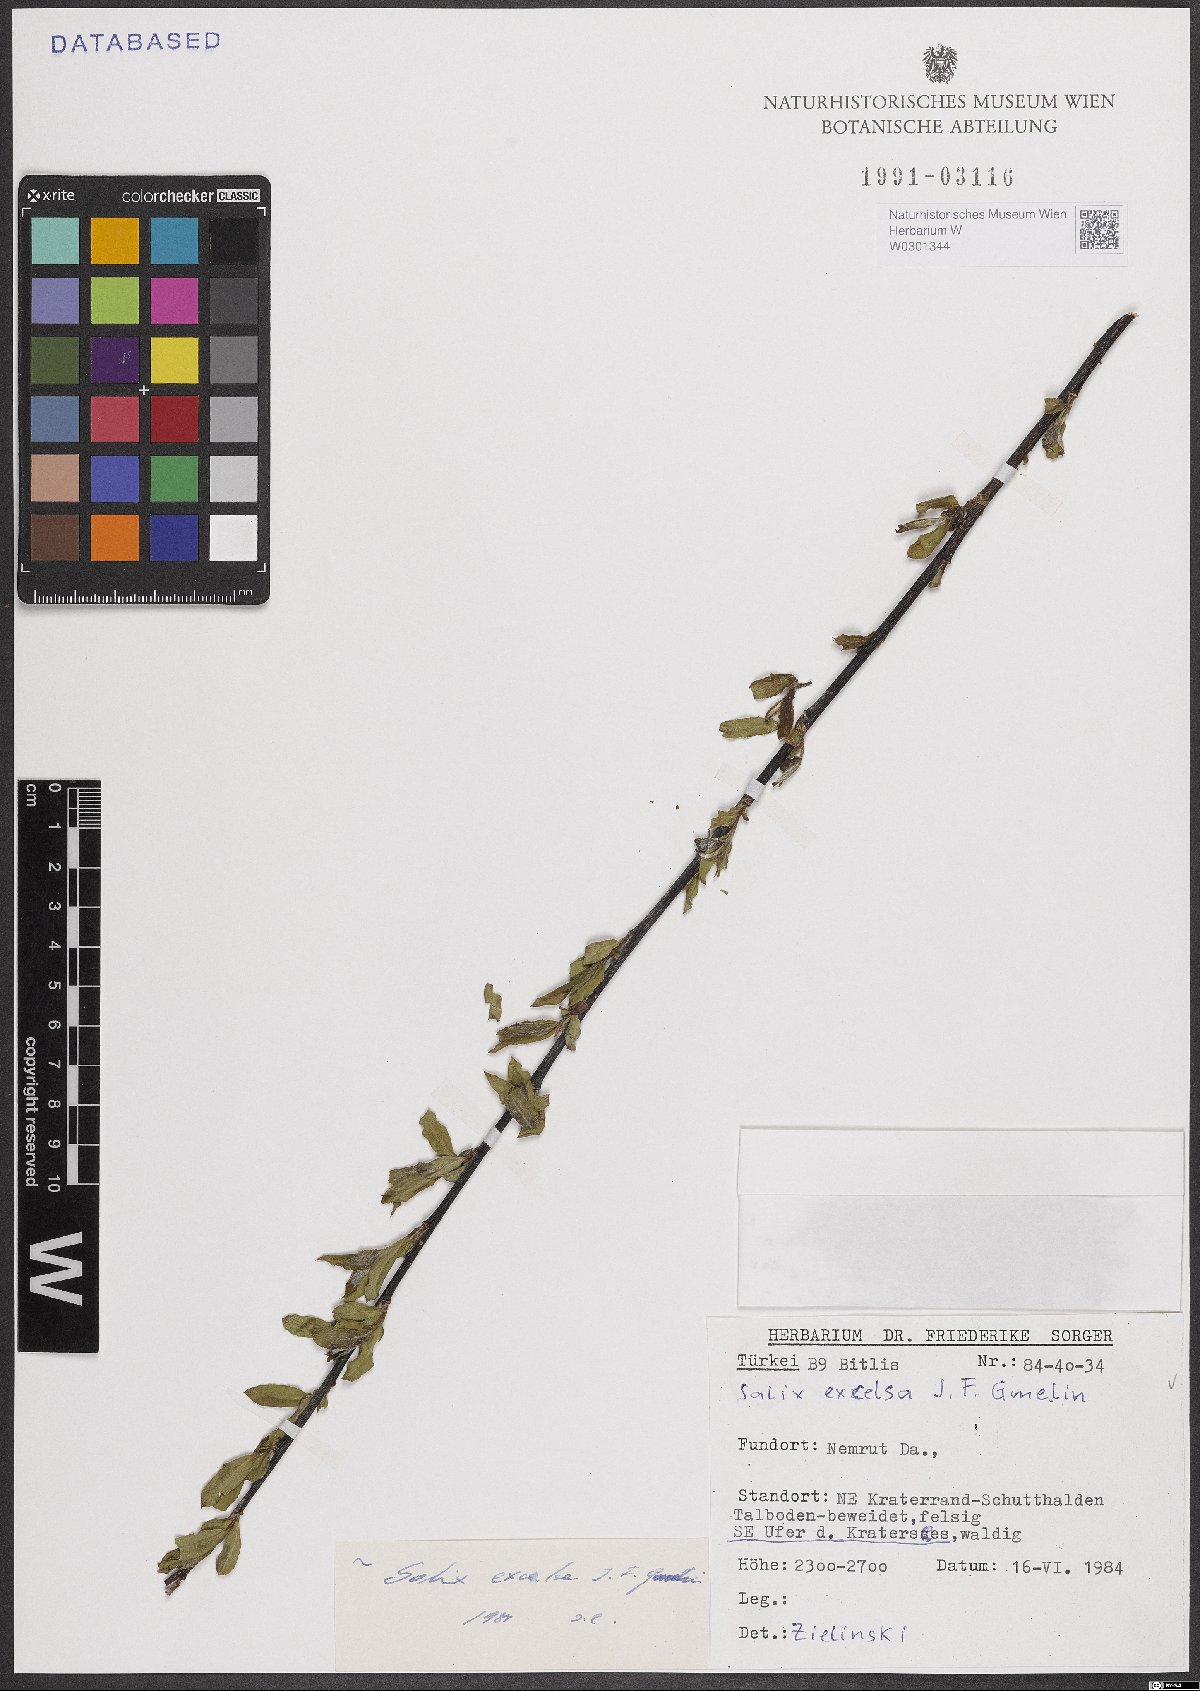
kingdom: Plantae
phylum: Tracheophyta
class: Magnoliopsida
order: Malpighiales
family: Salicaceae
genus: Salix
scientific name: Salix excelsa
